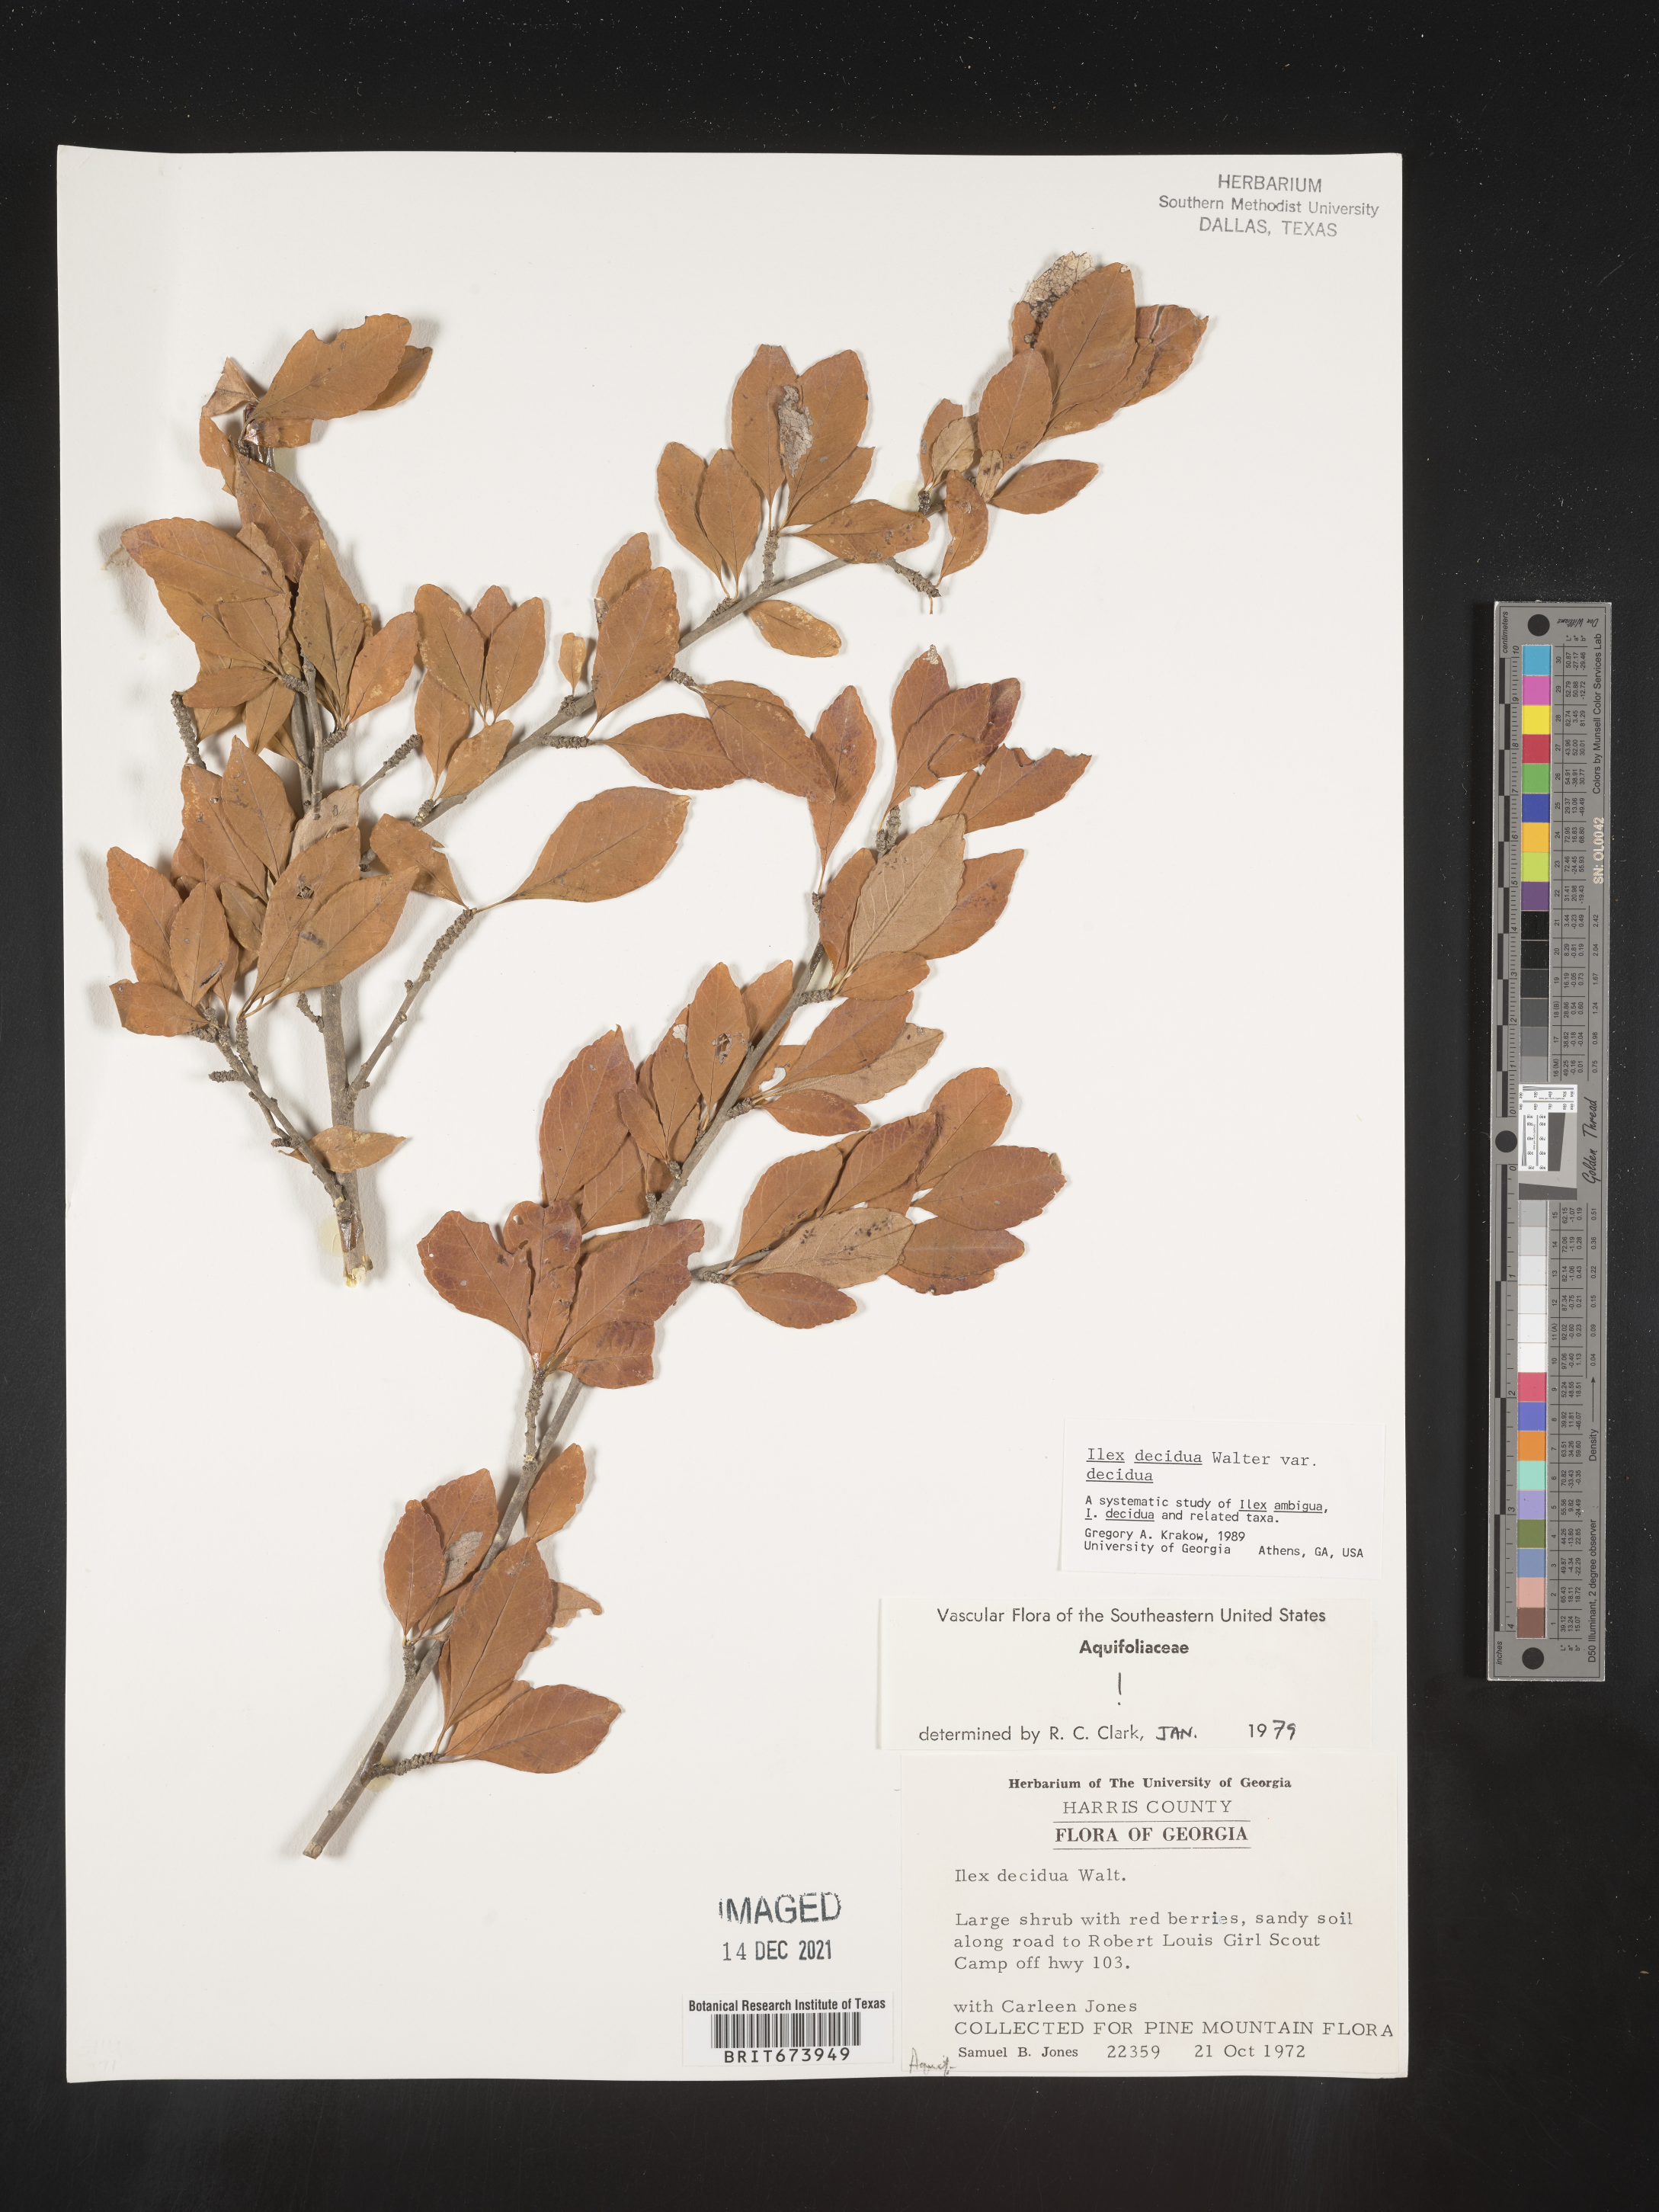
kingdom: Plantae
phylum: Tracheophyta
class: Magnoliopsida
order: Aquifoliales
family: Aquifoliaceae
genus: Ilex
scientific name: Ilex decidua
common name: Possum-haw
